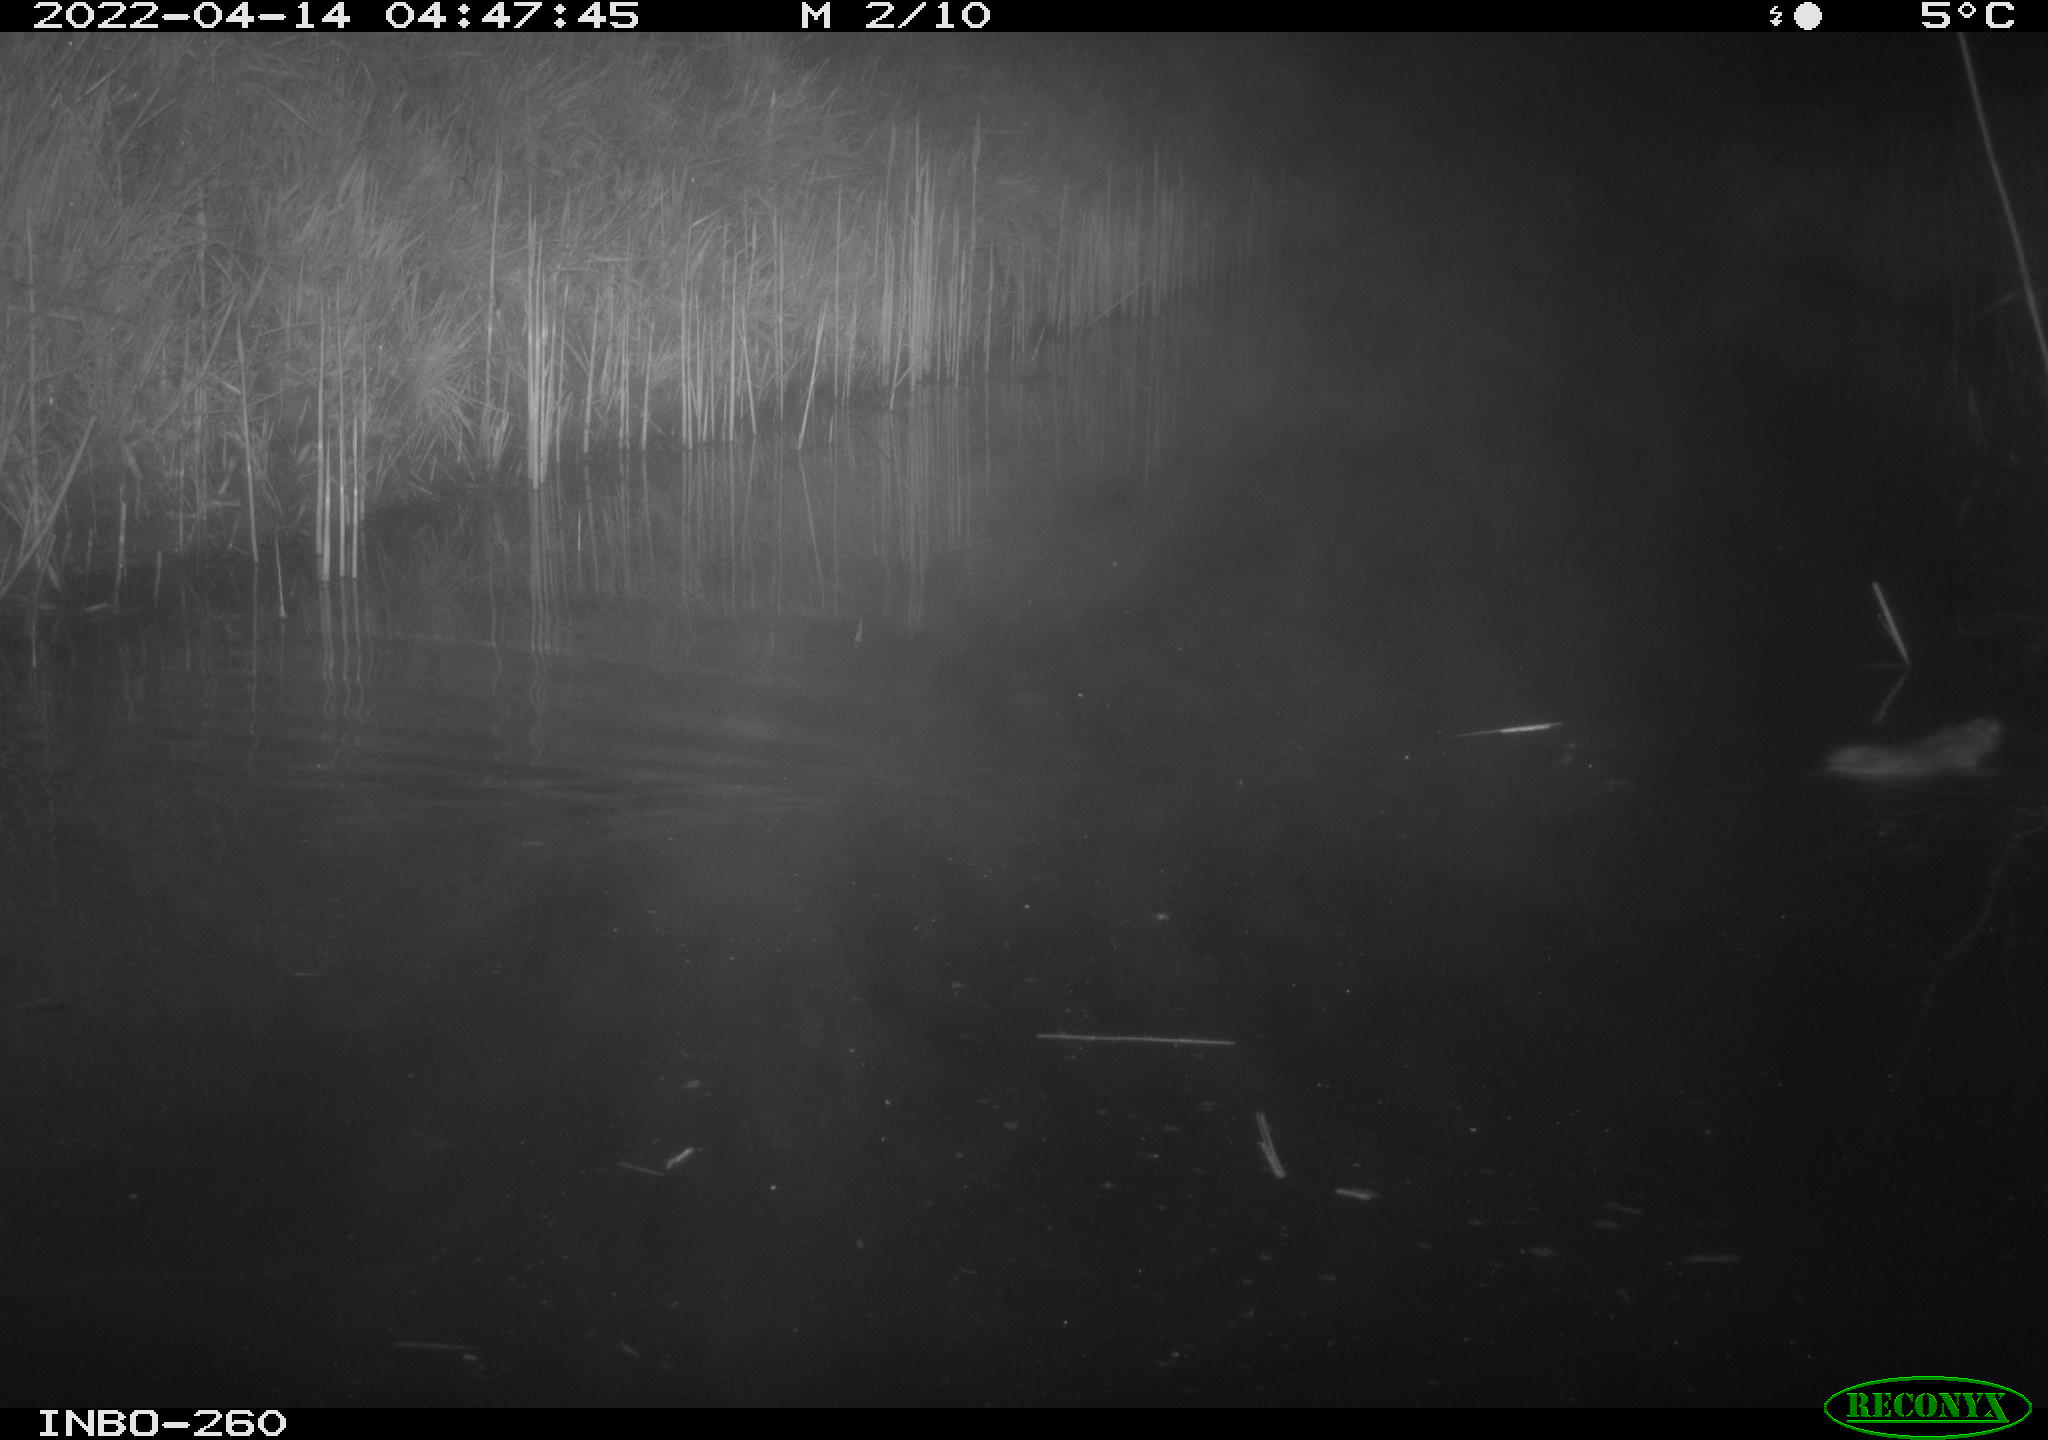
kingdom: Animalia
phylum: Chordata
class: Mammalia
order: Rodentia
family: Muridae
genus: Rattus
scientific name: Rattus norvegicus
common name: Brown rat
